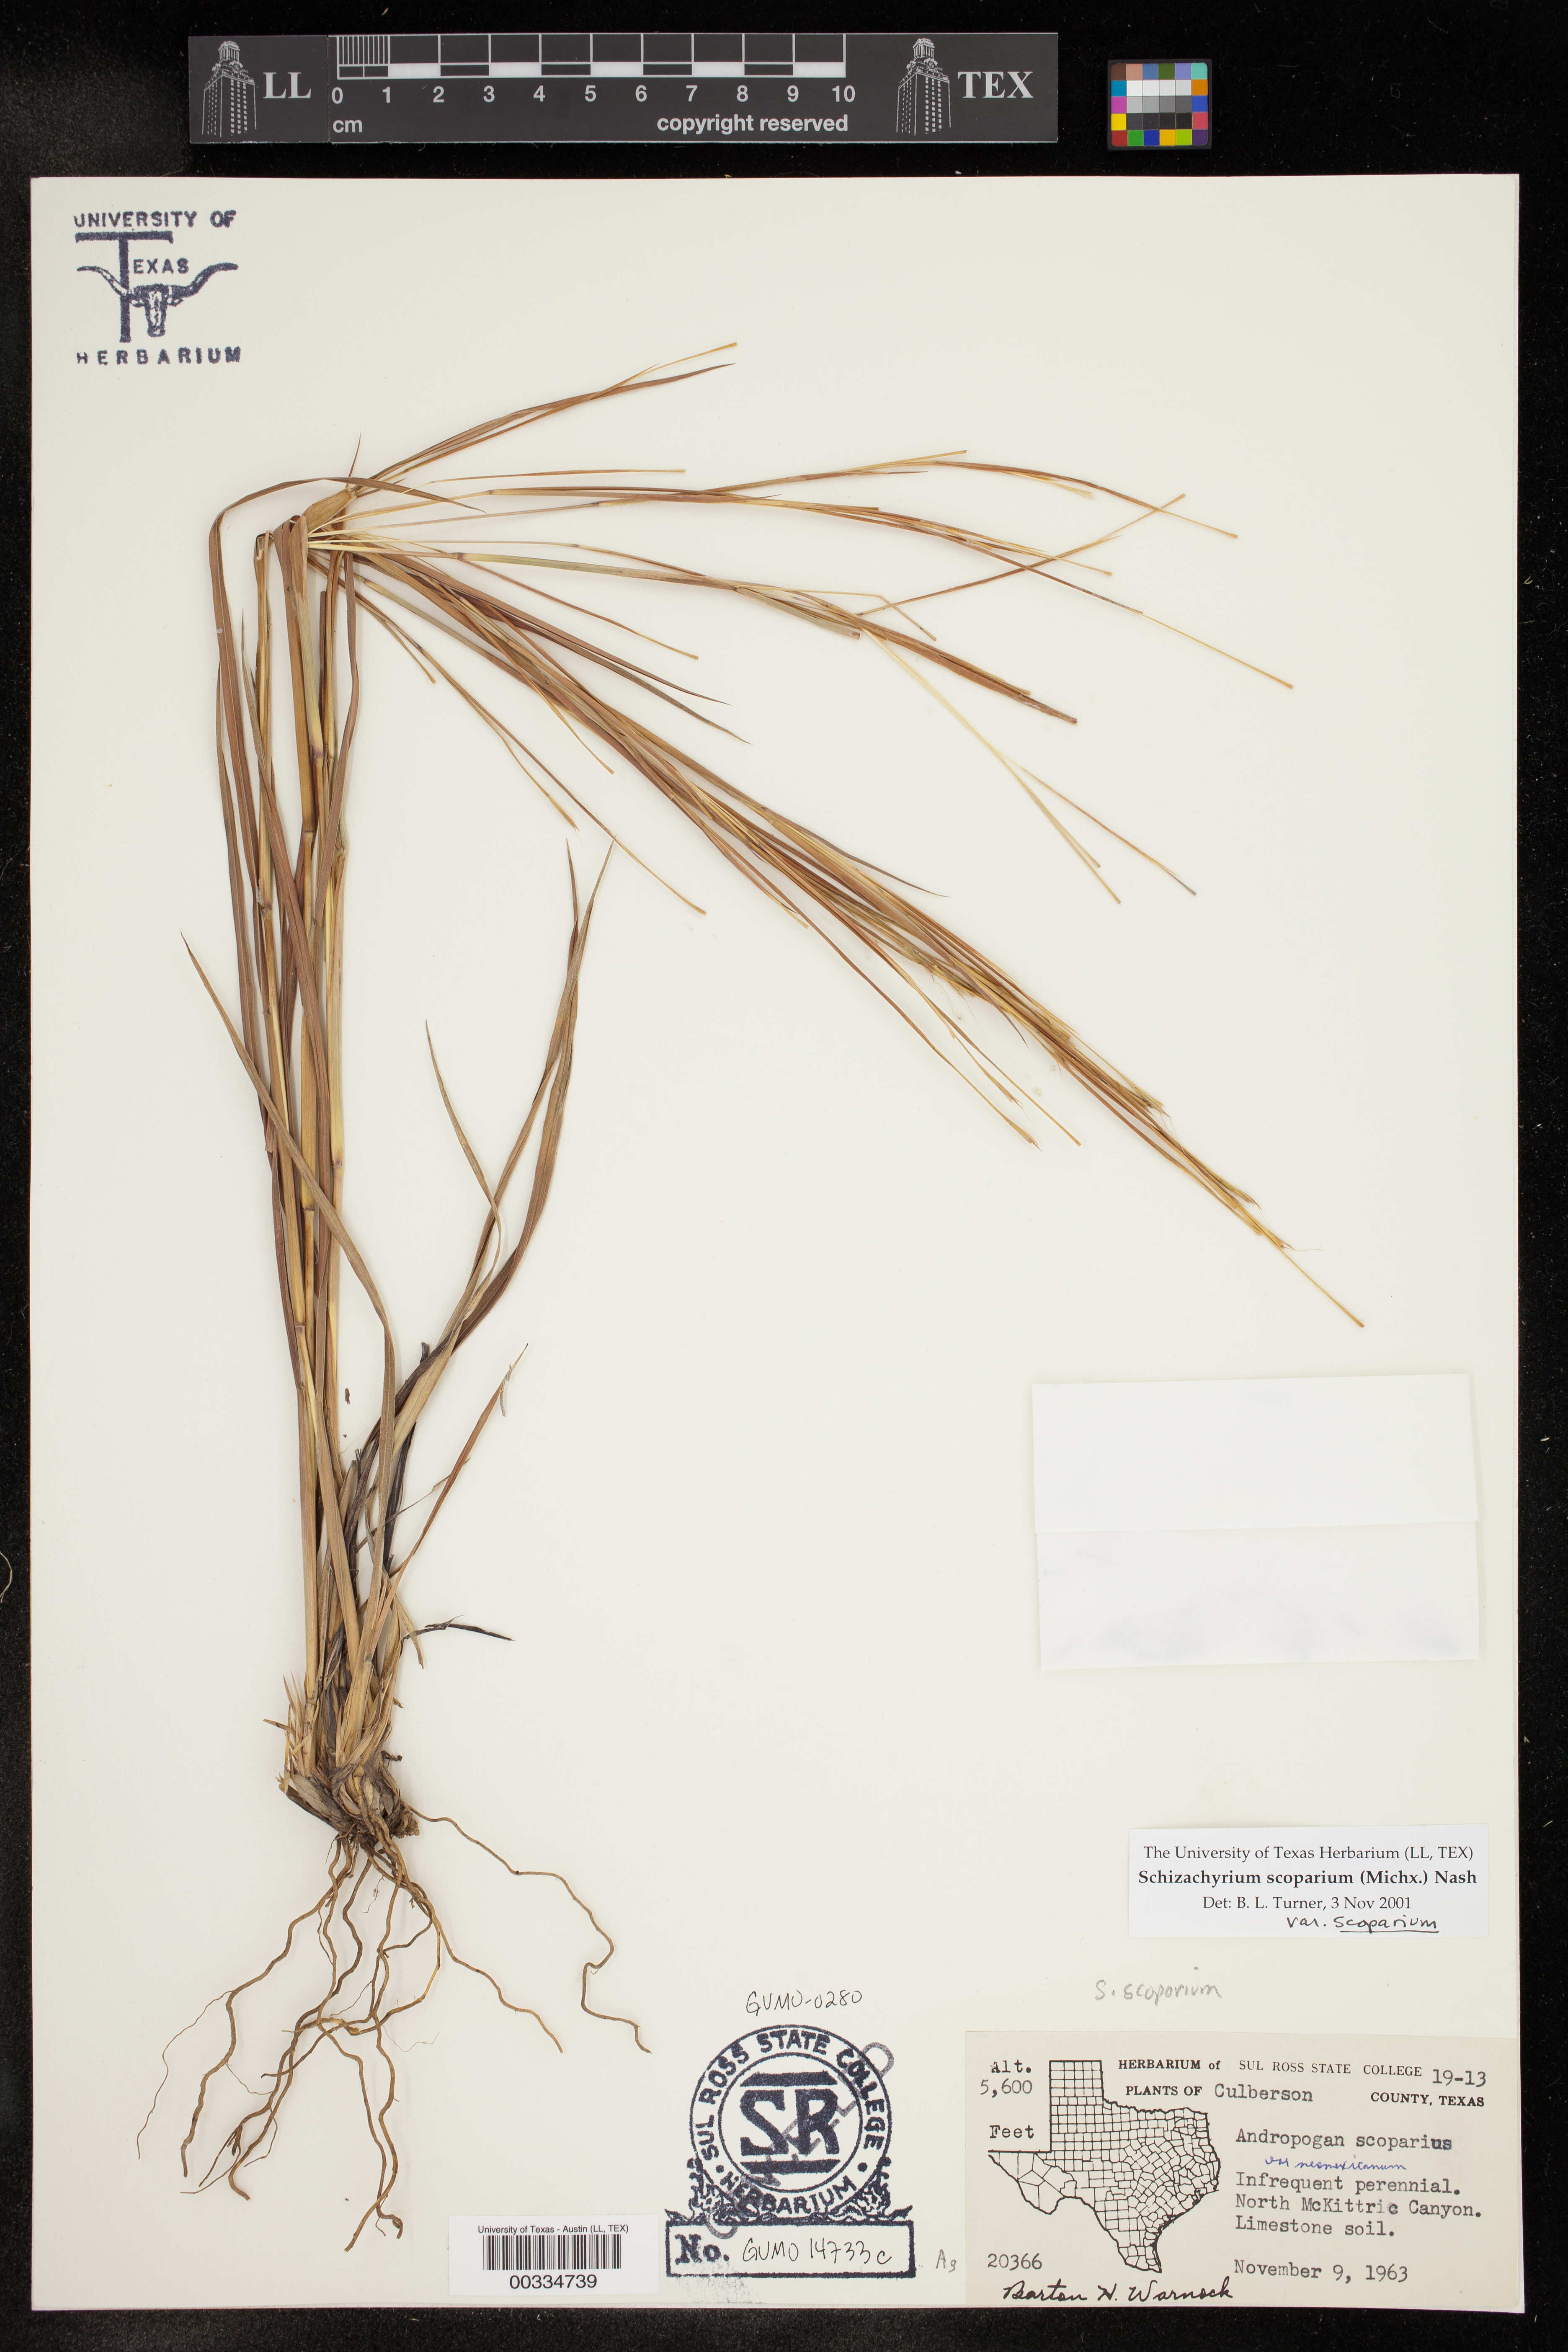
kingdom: Plantae
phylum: Tracheophyta
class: Liliopsida
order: Poales
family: Poaceae
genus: Schizachyrium
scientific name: Schizachyrium scoparium
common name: Little bluestem
